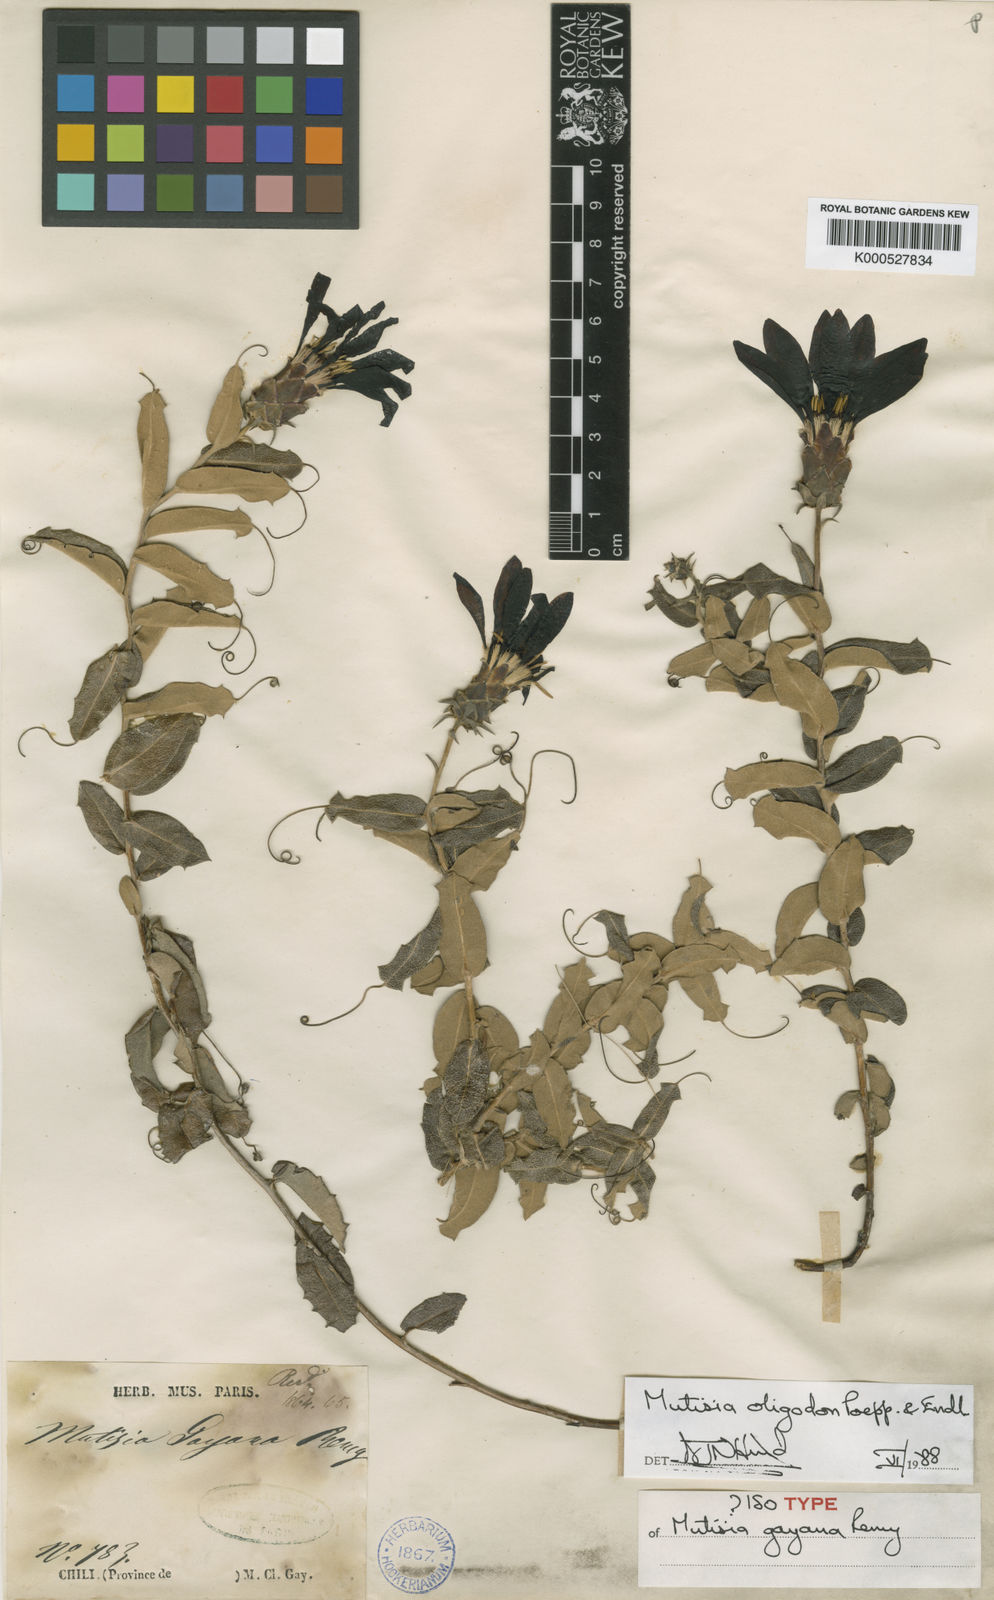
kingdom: Plantae
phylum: Tracheophyta
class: Magnoliopsida
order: Asterales
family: Asteraceae
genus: Mutisia
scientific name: Mutisia oligodon
